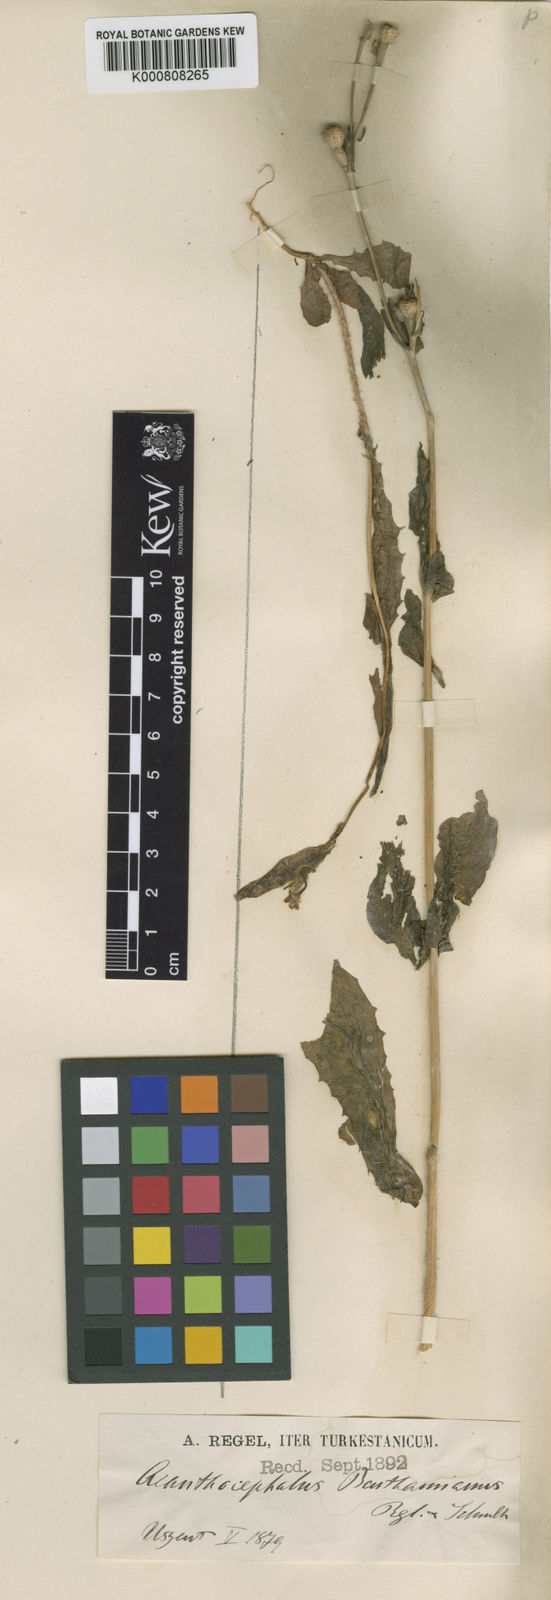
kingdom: Plantae
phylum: Tracheophyta
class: Magnoliopsida
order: Asterales
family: Asteraceae
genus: Acanthocephalus
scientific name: Acanthocephalus benthamianus
